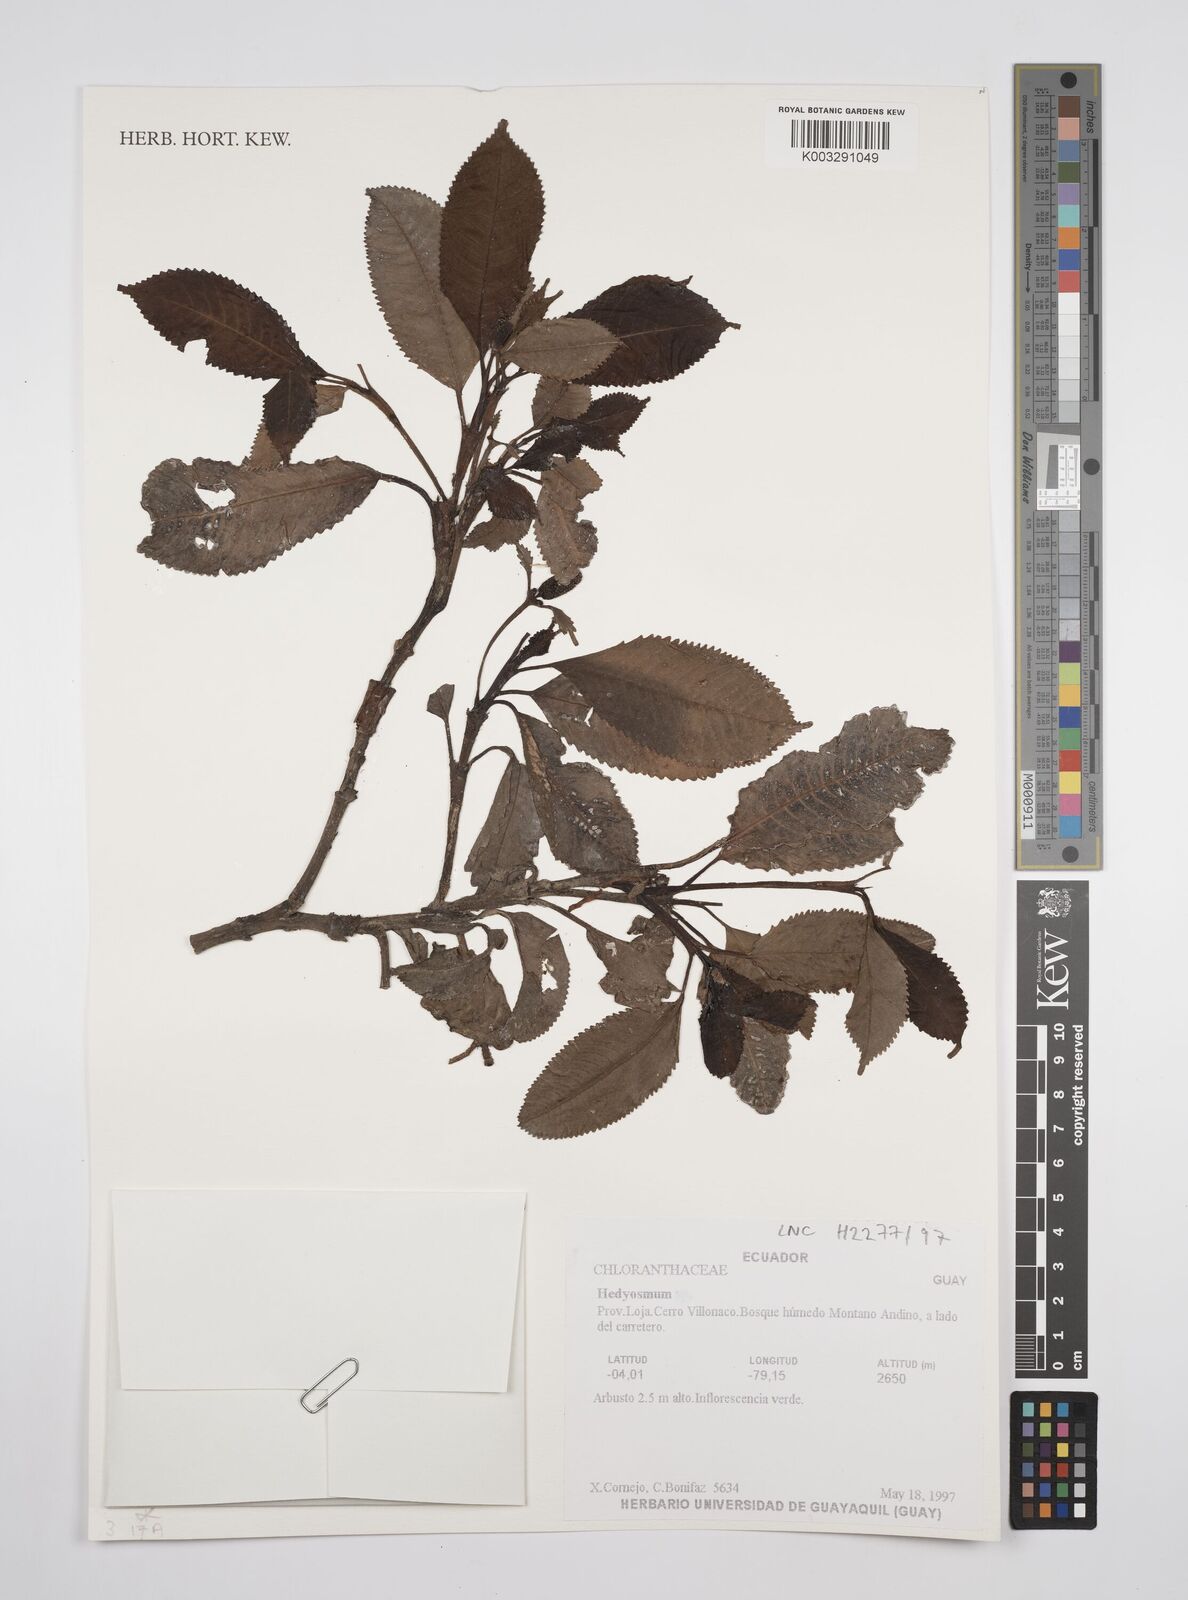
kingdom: Plantae
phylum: Tracheophyta
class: Magnoliopsida
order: Chloranthales
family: Chloranthaceae
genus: Hedyosmum
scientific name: Hedyosmum
